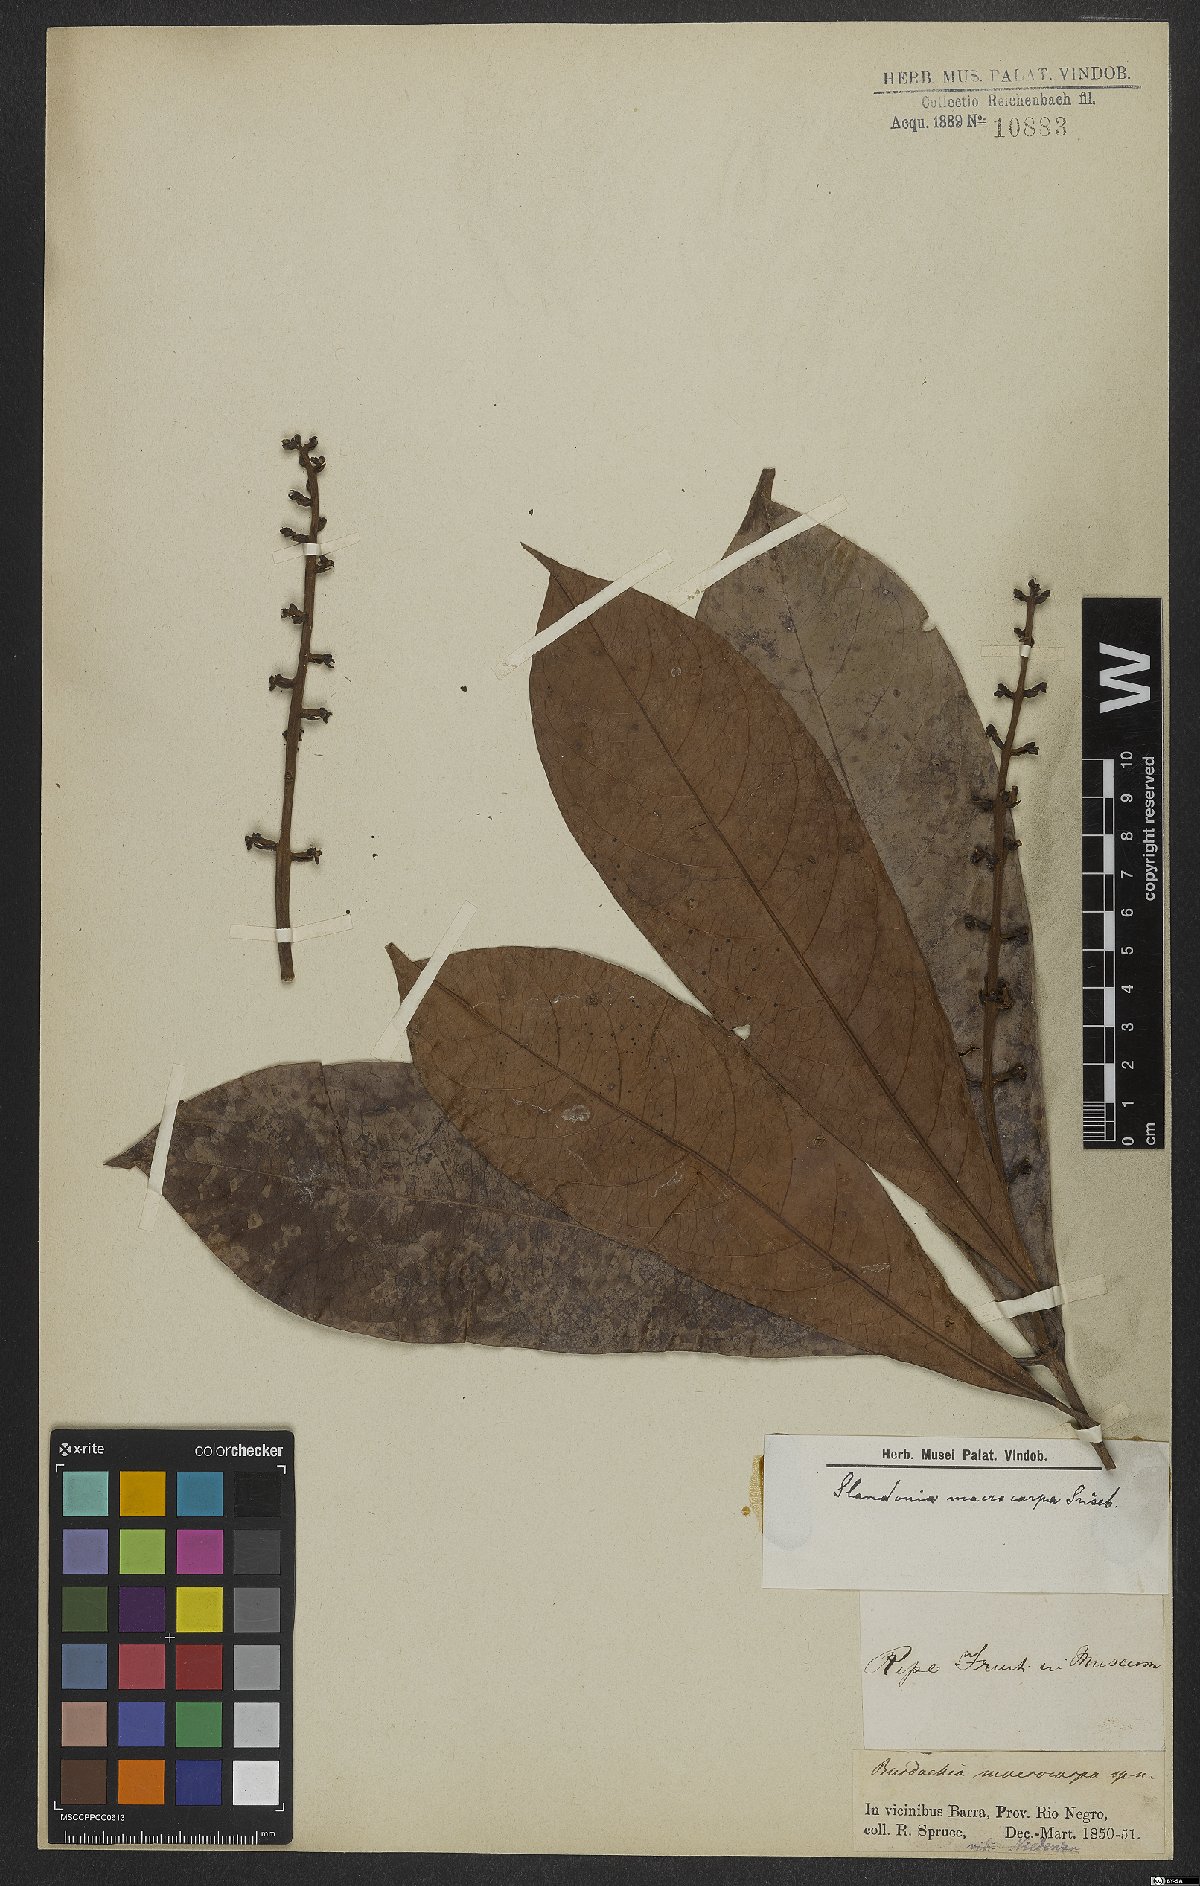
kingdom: Plantae
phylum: Tracheophyta
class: Magnoliopsida
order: Malpighiales
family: Malpighiaceae
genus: Glandonia
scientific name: Glandonia macrocarpa
